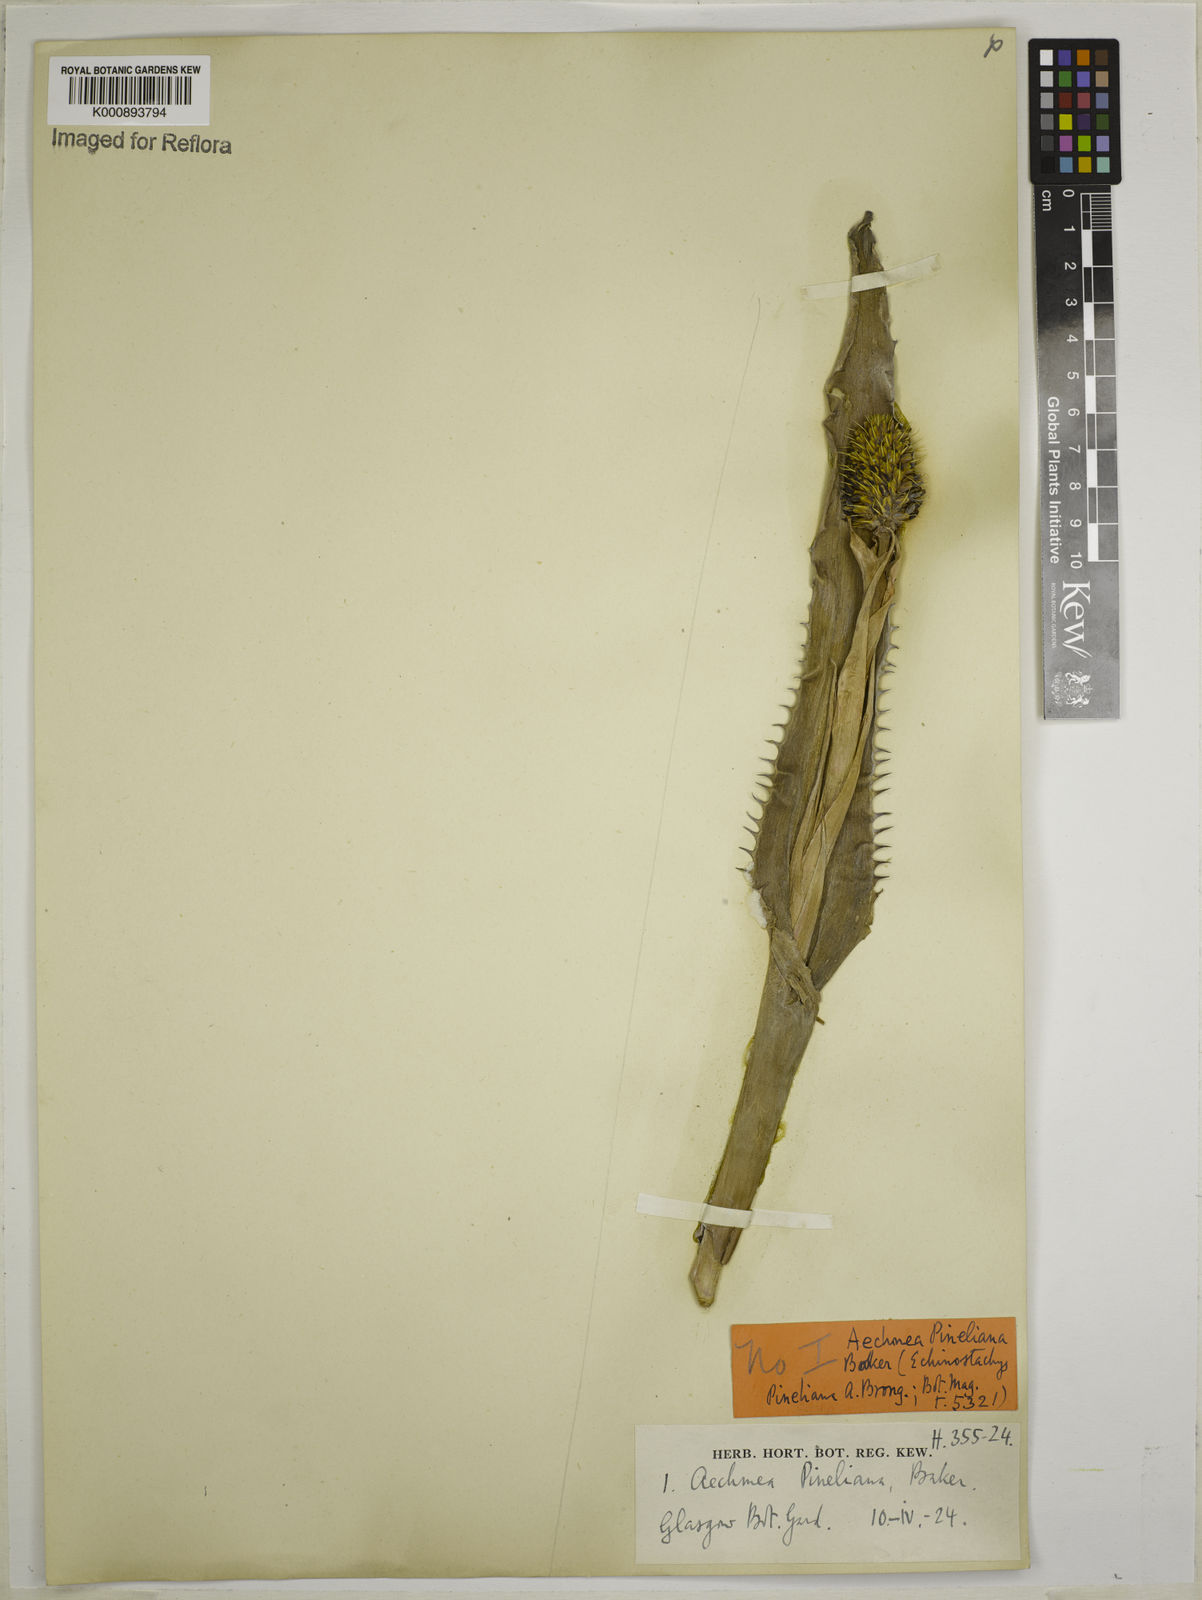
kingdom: Plantae
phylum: Tracheophyta
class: Liliopsida
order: Poales
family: Bromeliaceae
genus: Aechmea
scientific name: Aechmea pineliana
